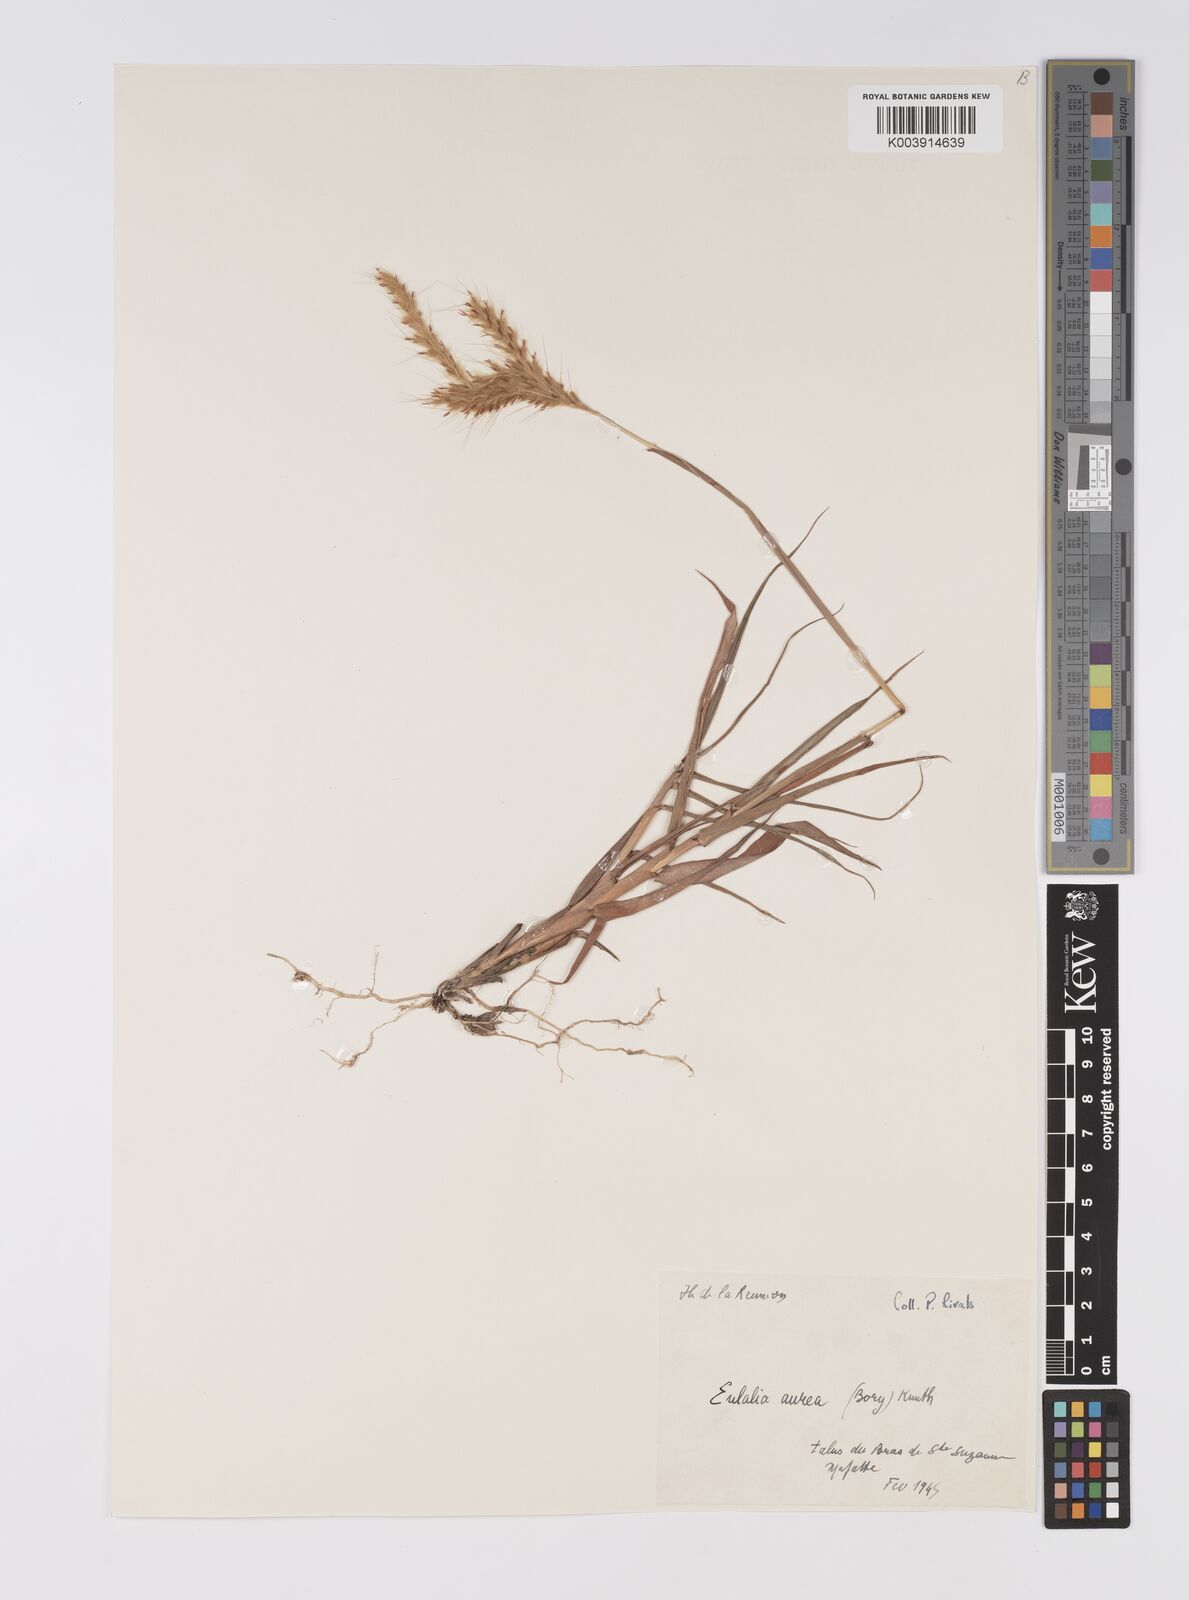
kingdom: Plantae
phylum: Tracheophyta
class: Liliopsida
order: Poales
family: Poaceae
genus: Eulalia
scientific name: Eulalia aurea
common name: Silky browntop
